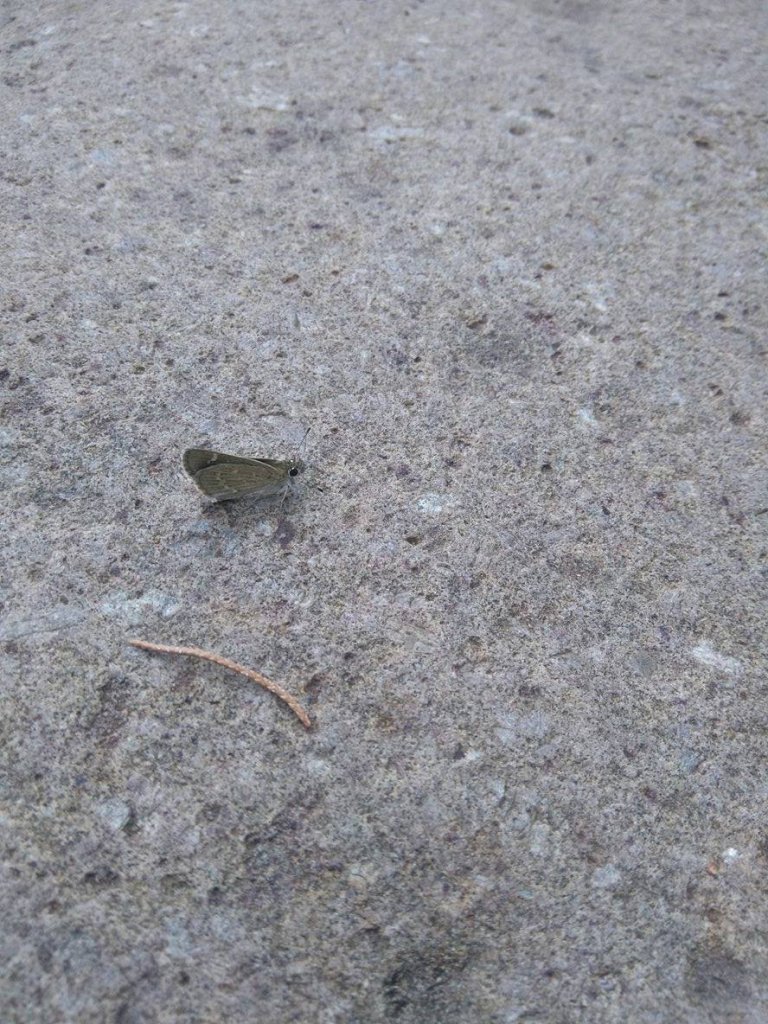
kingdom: Animalia
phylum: Arthropoda
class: Insecta
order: Lepidoptera
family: Hesperiidae
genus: Mastor
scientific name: Mastor nereus
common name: Slaty Roadside-Skipper
